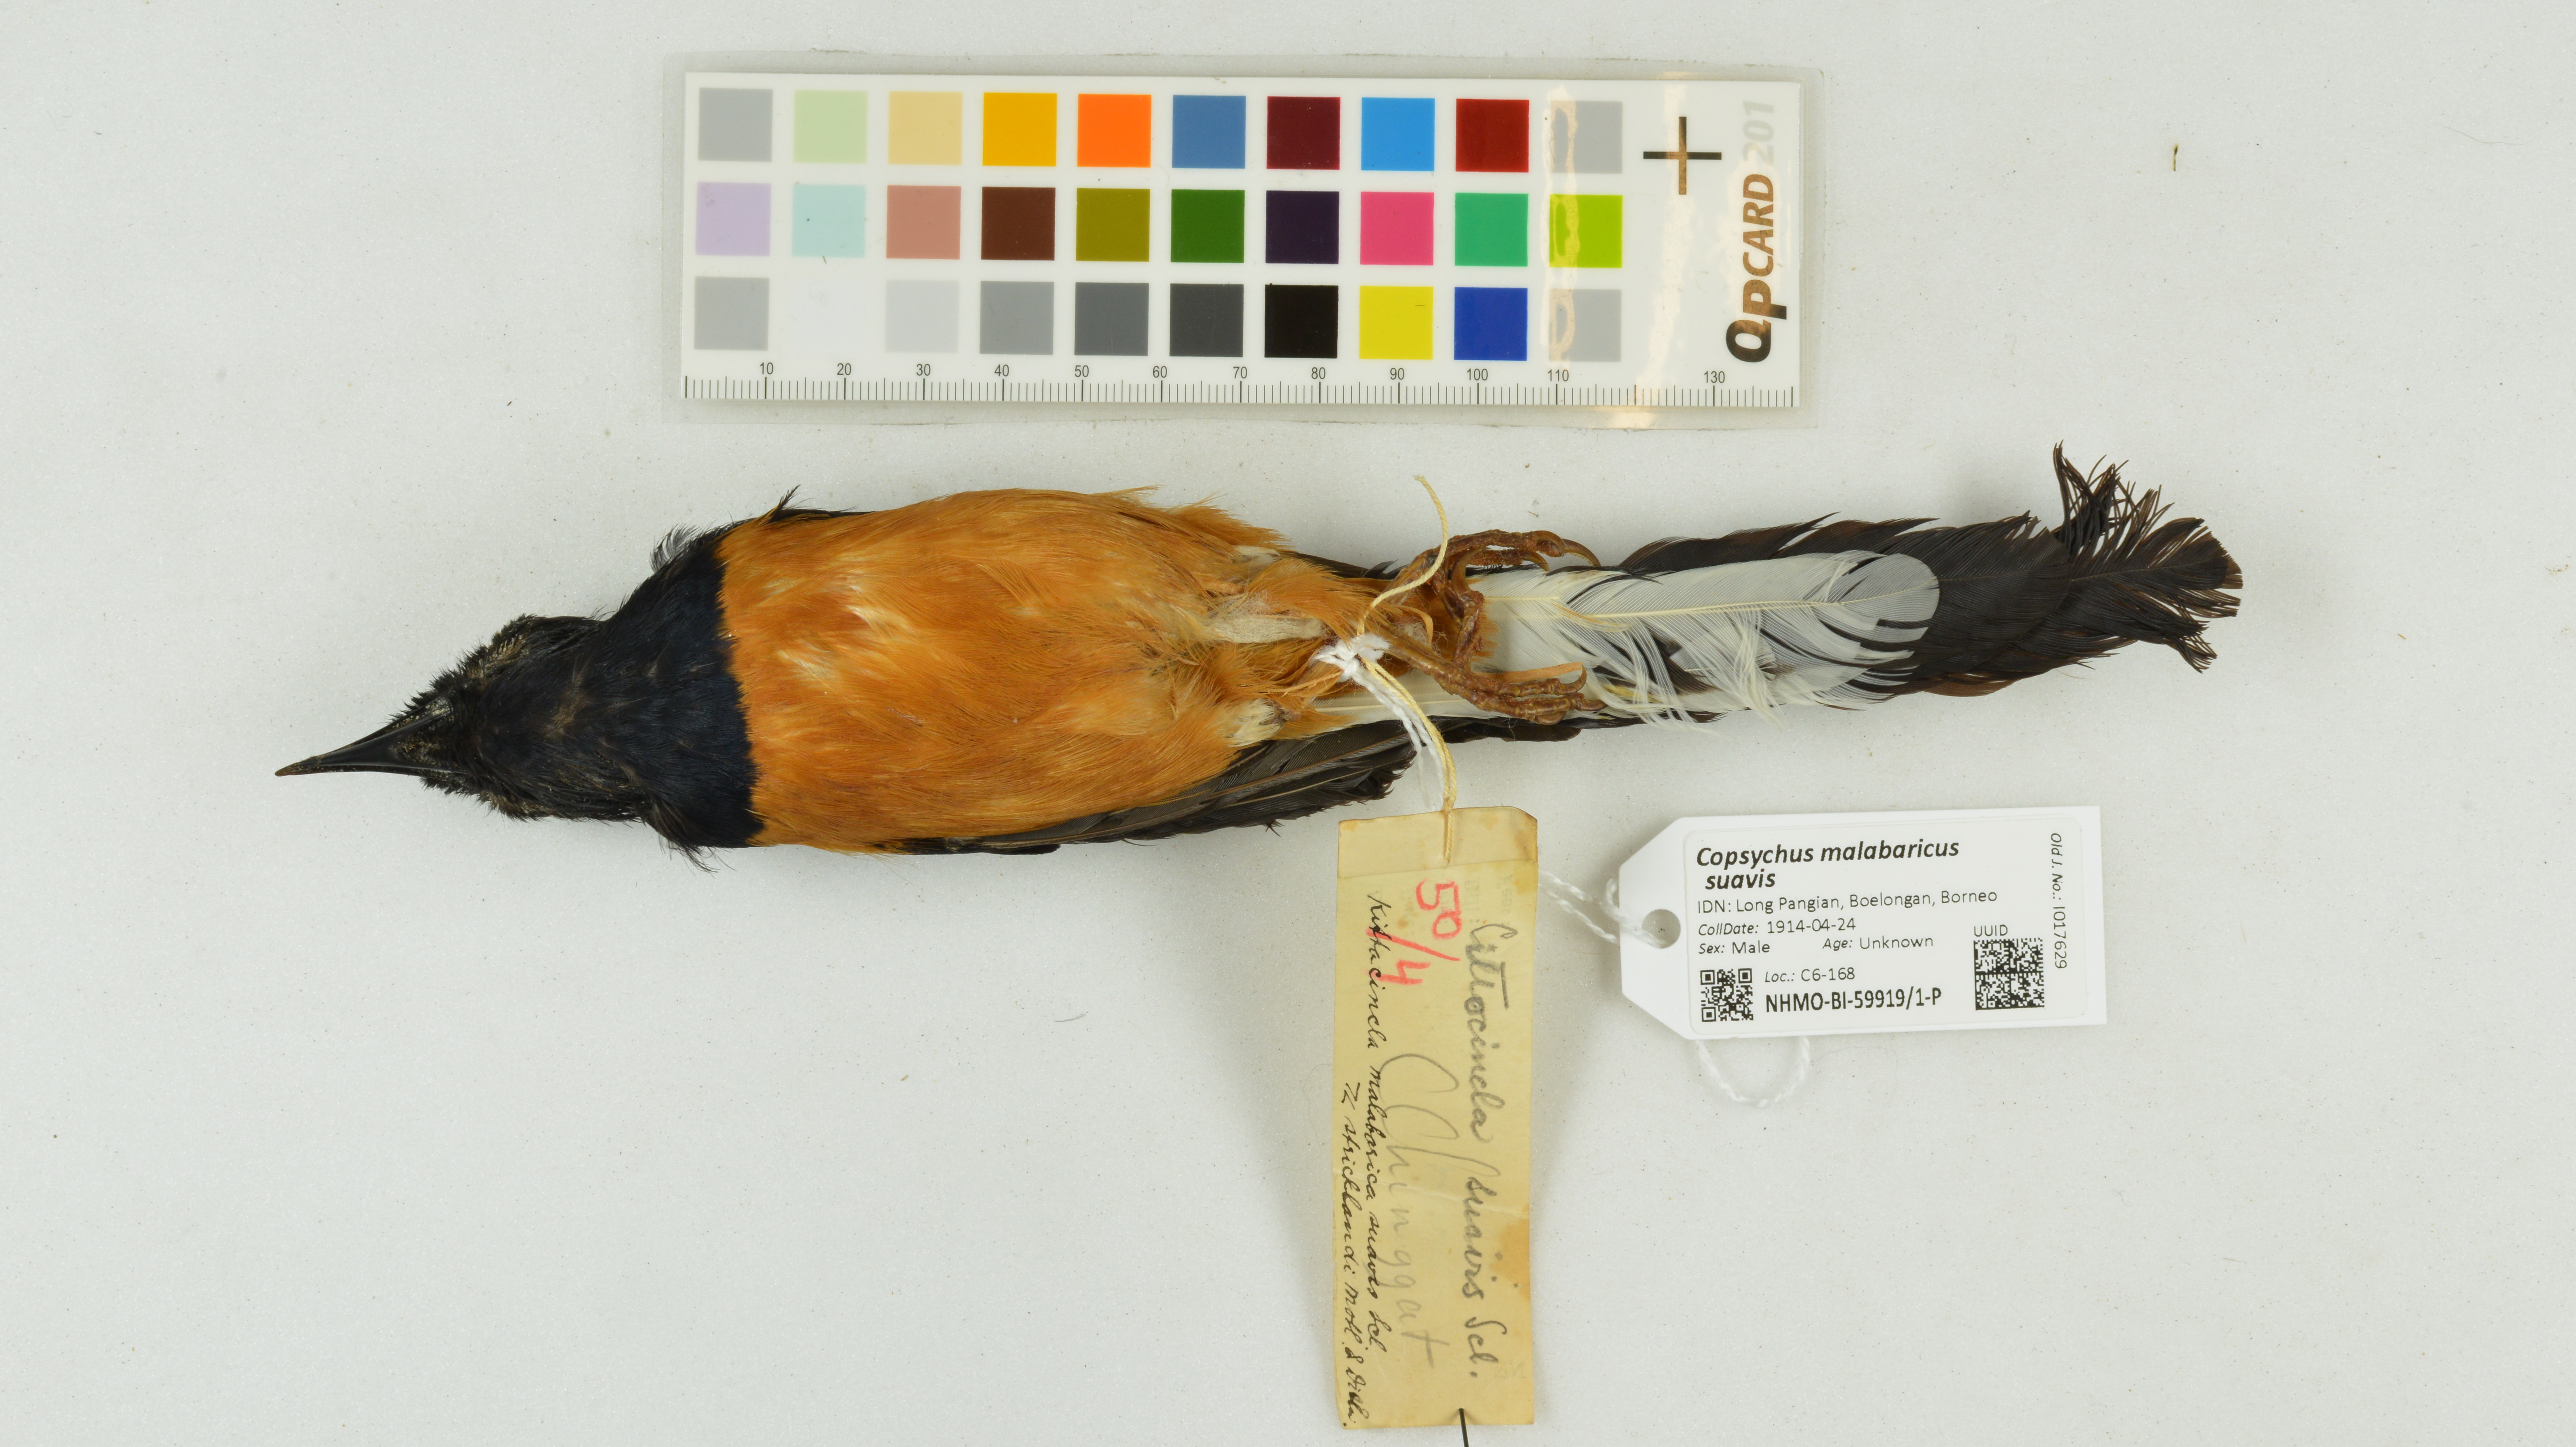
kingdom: Animalia
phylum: Chordata
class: Aves
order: Passeriformes
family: Muscicapidae
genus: Copsychus
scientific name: Copsychus malabaricus
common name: White-rumped shama
